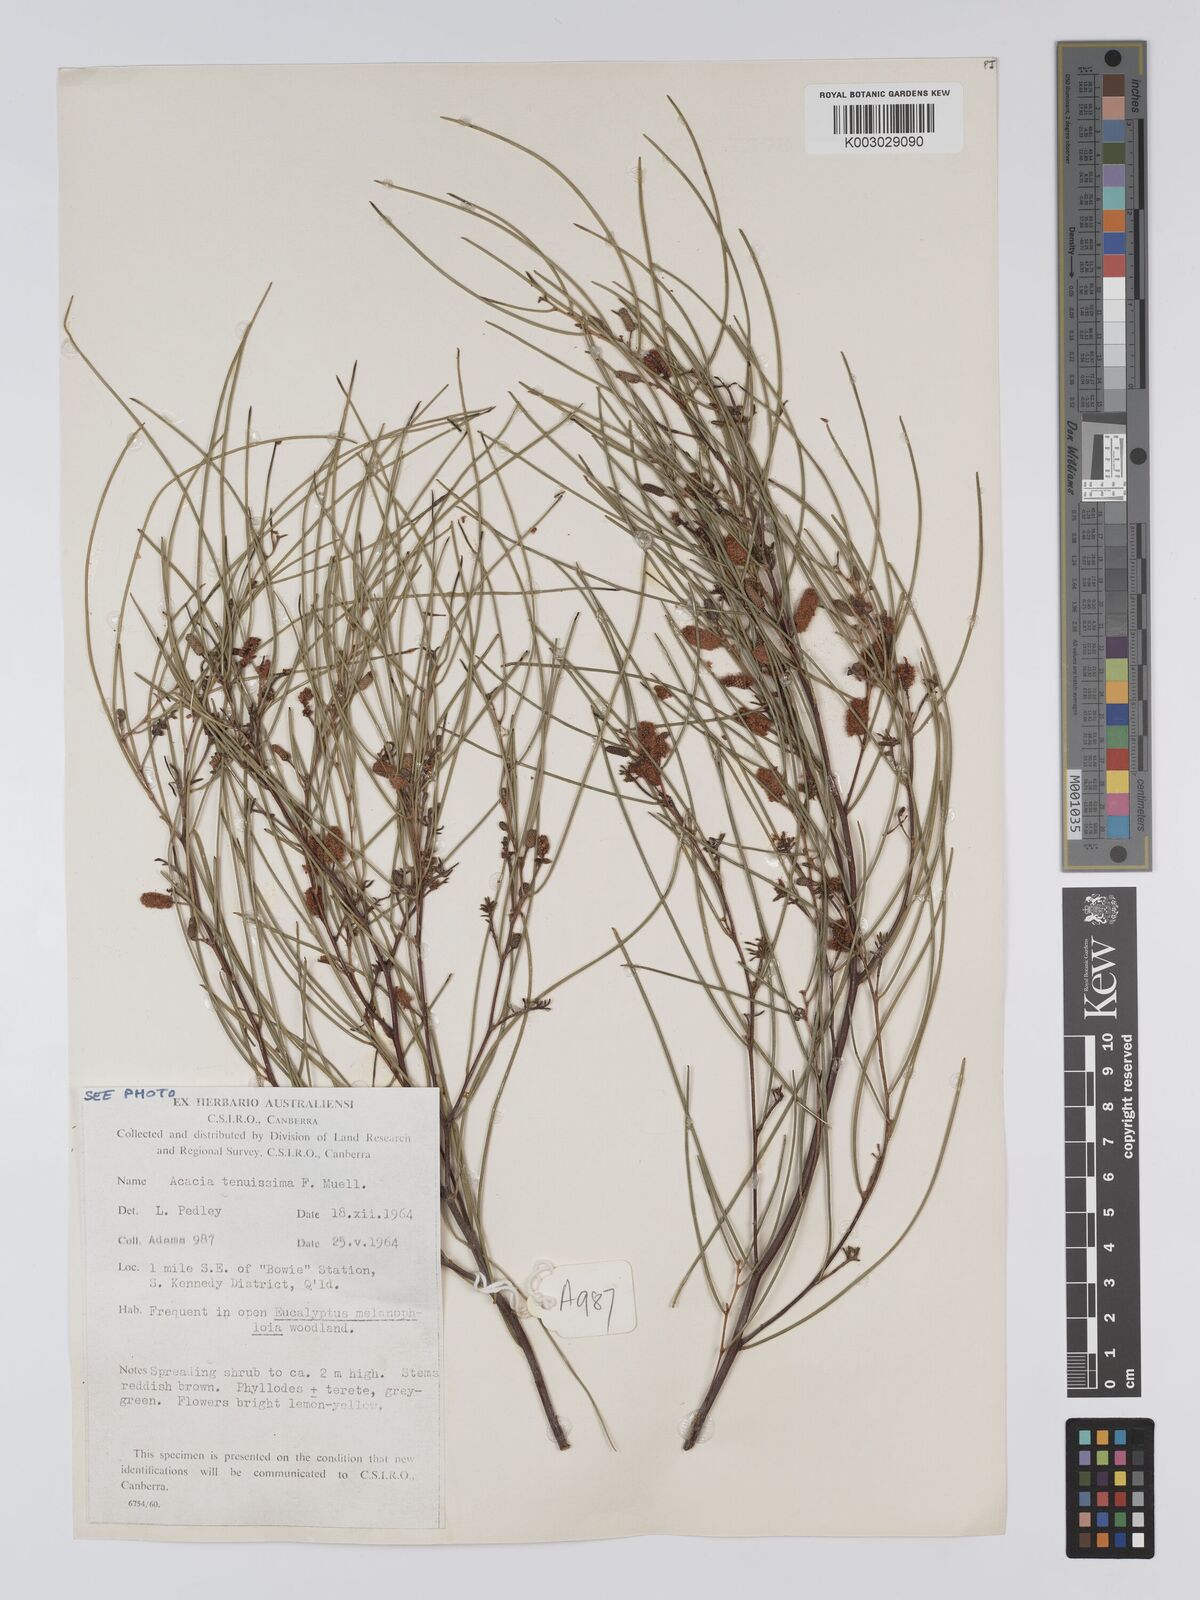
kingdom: Plantae
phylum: Tracheophyta
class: Magnoliopsida
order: Fabales
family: Fabaceae
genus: Acacia
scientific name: Acacia tenuissima
